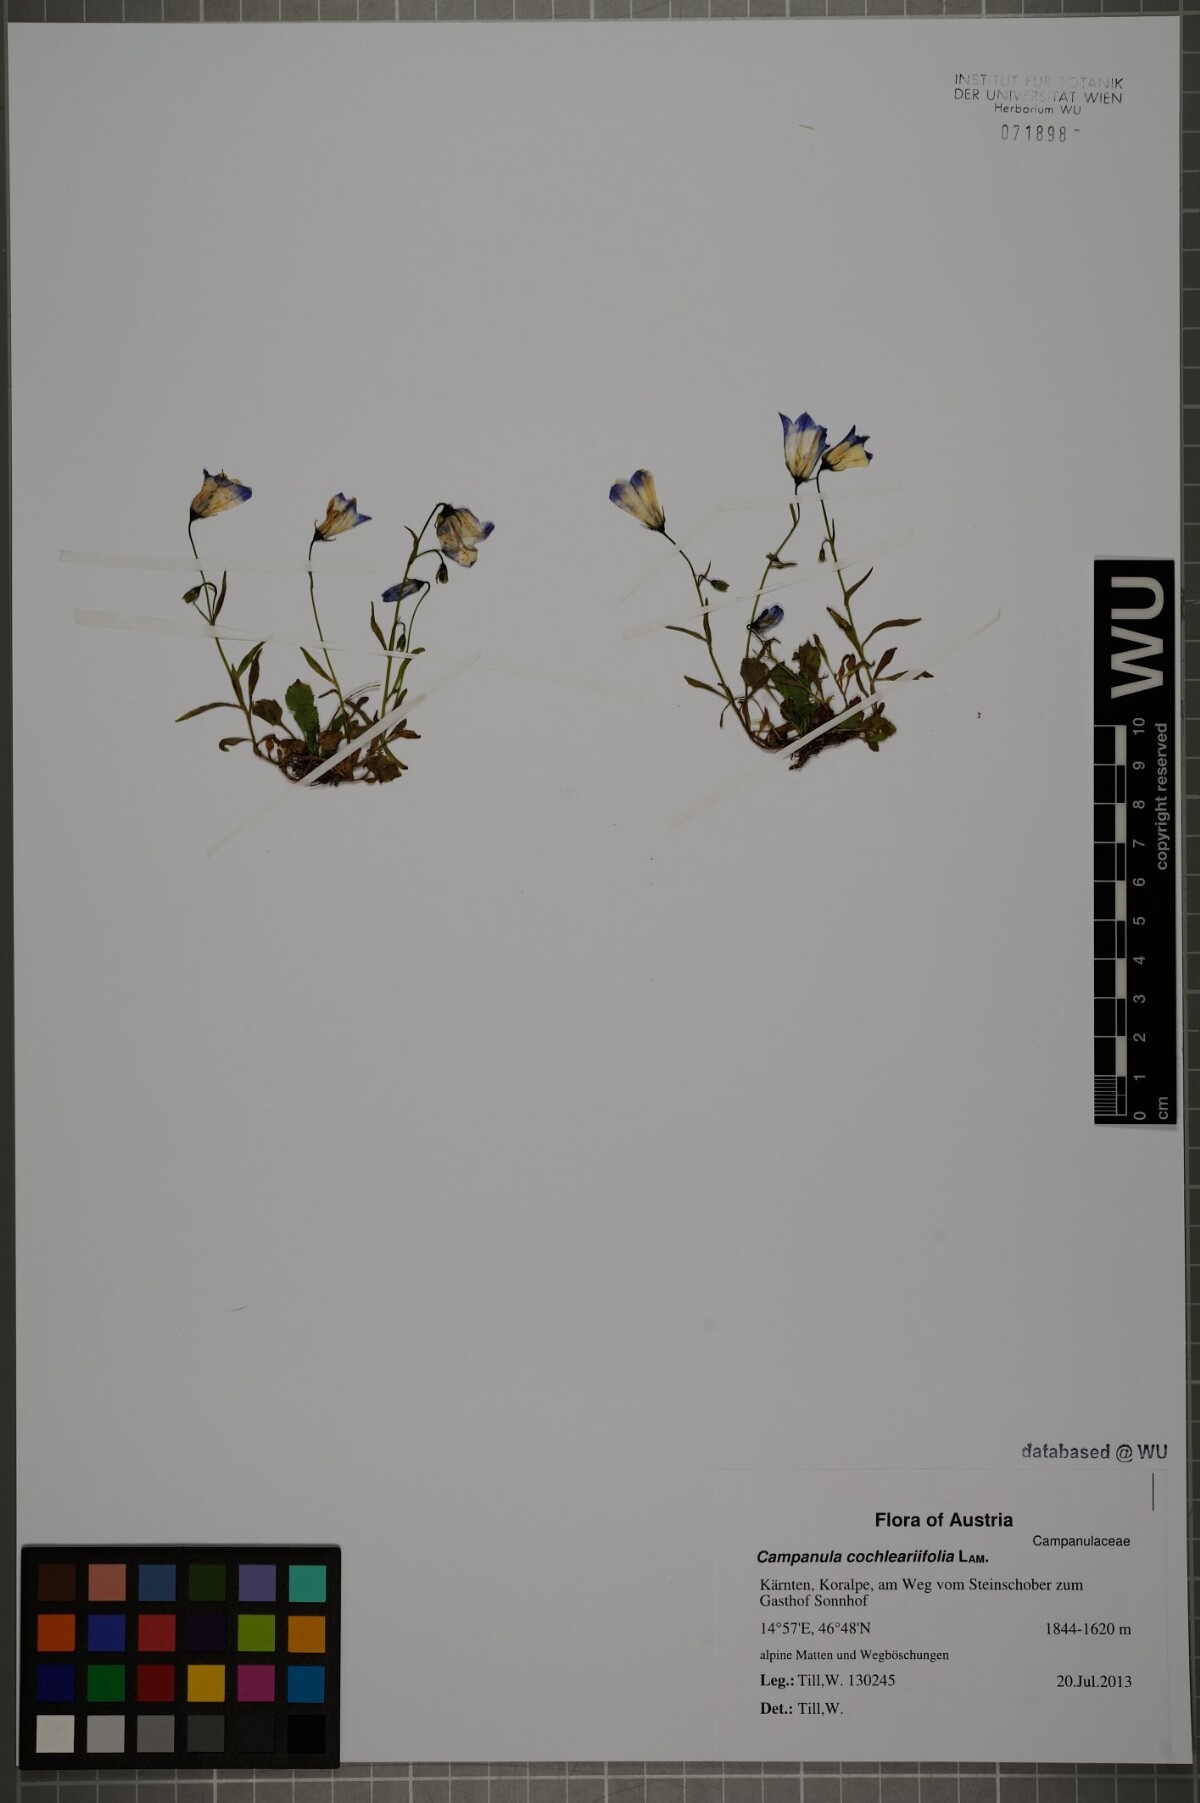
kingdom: Plantae
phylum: Tracheophyta
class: Magnoliopsida
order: Asterales
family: Campanulaceae
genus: Campanula
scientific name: Campanula cochleariifolia
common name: Fairies'-thimbles
